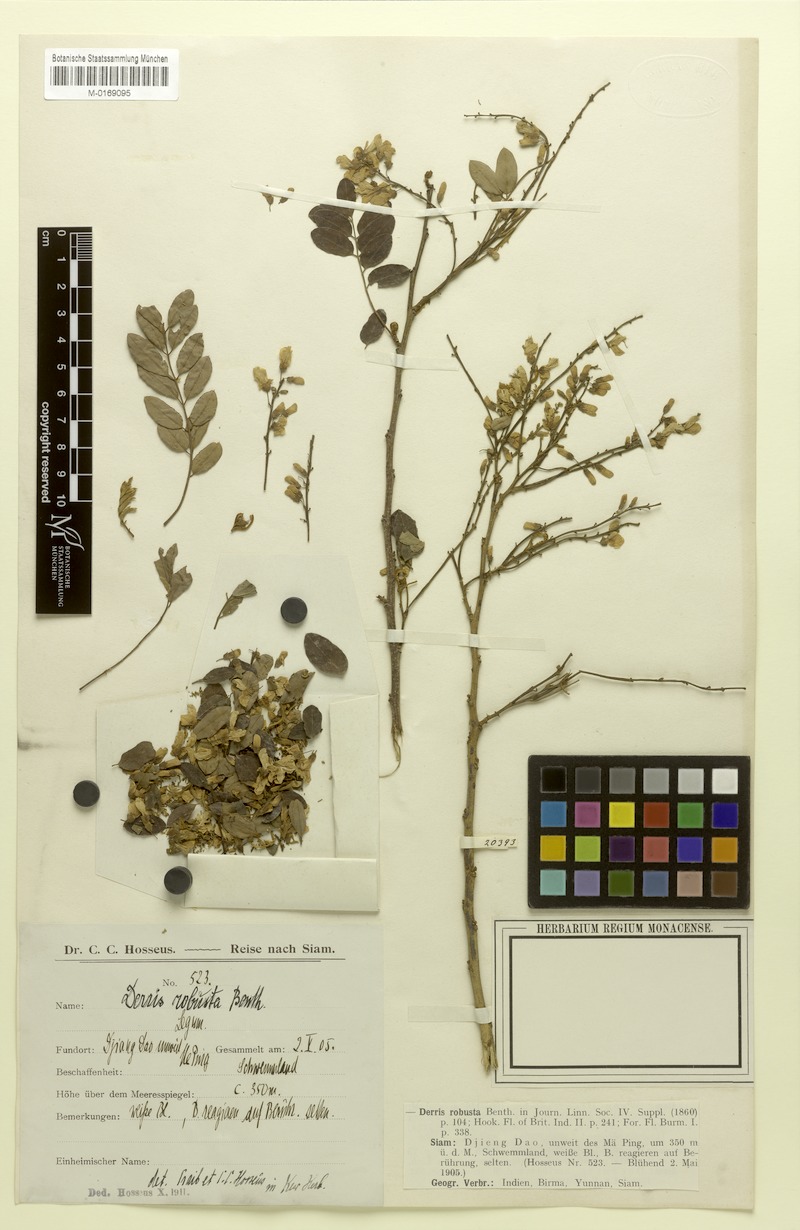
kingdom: Plantae
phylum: Tracheophyta
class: Magnoliopsida
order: Fabales
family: Fabaceae
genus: Brachypterum
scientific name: Brachypterum robustum
